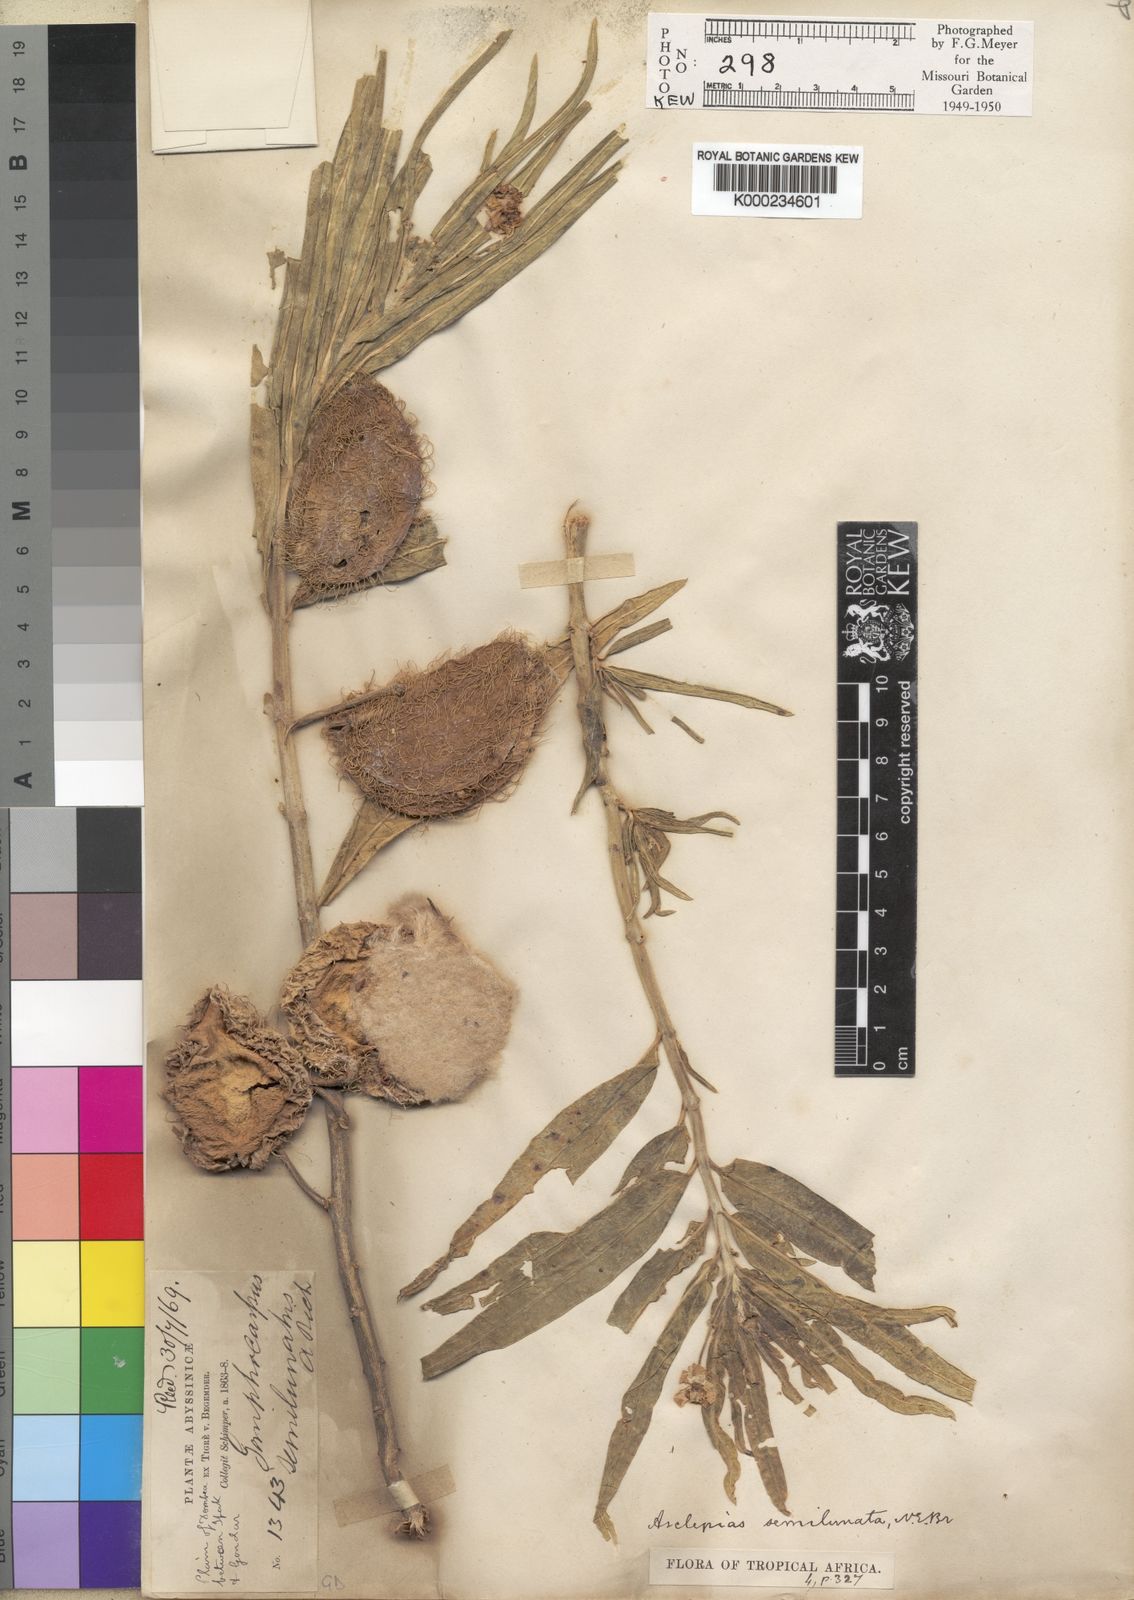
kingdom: Plantae
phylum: Tracheophyta
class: Magnoliopsida
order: Gentianales
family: Apocynaceae
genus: Gomphocarpus
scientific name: Gomphocarpus semilunatus
